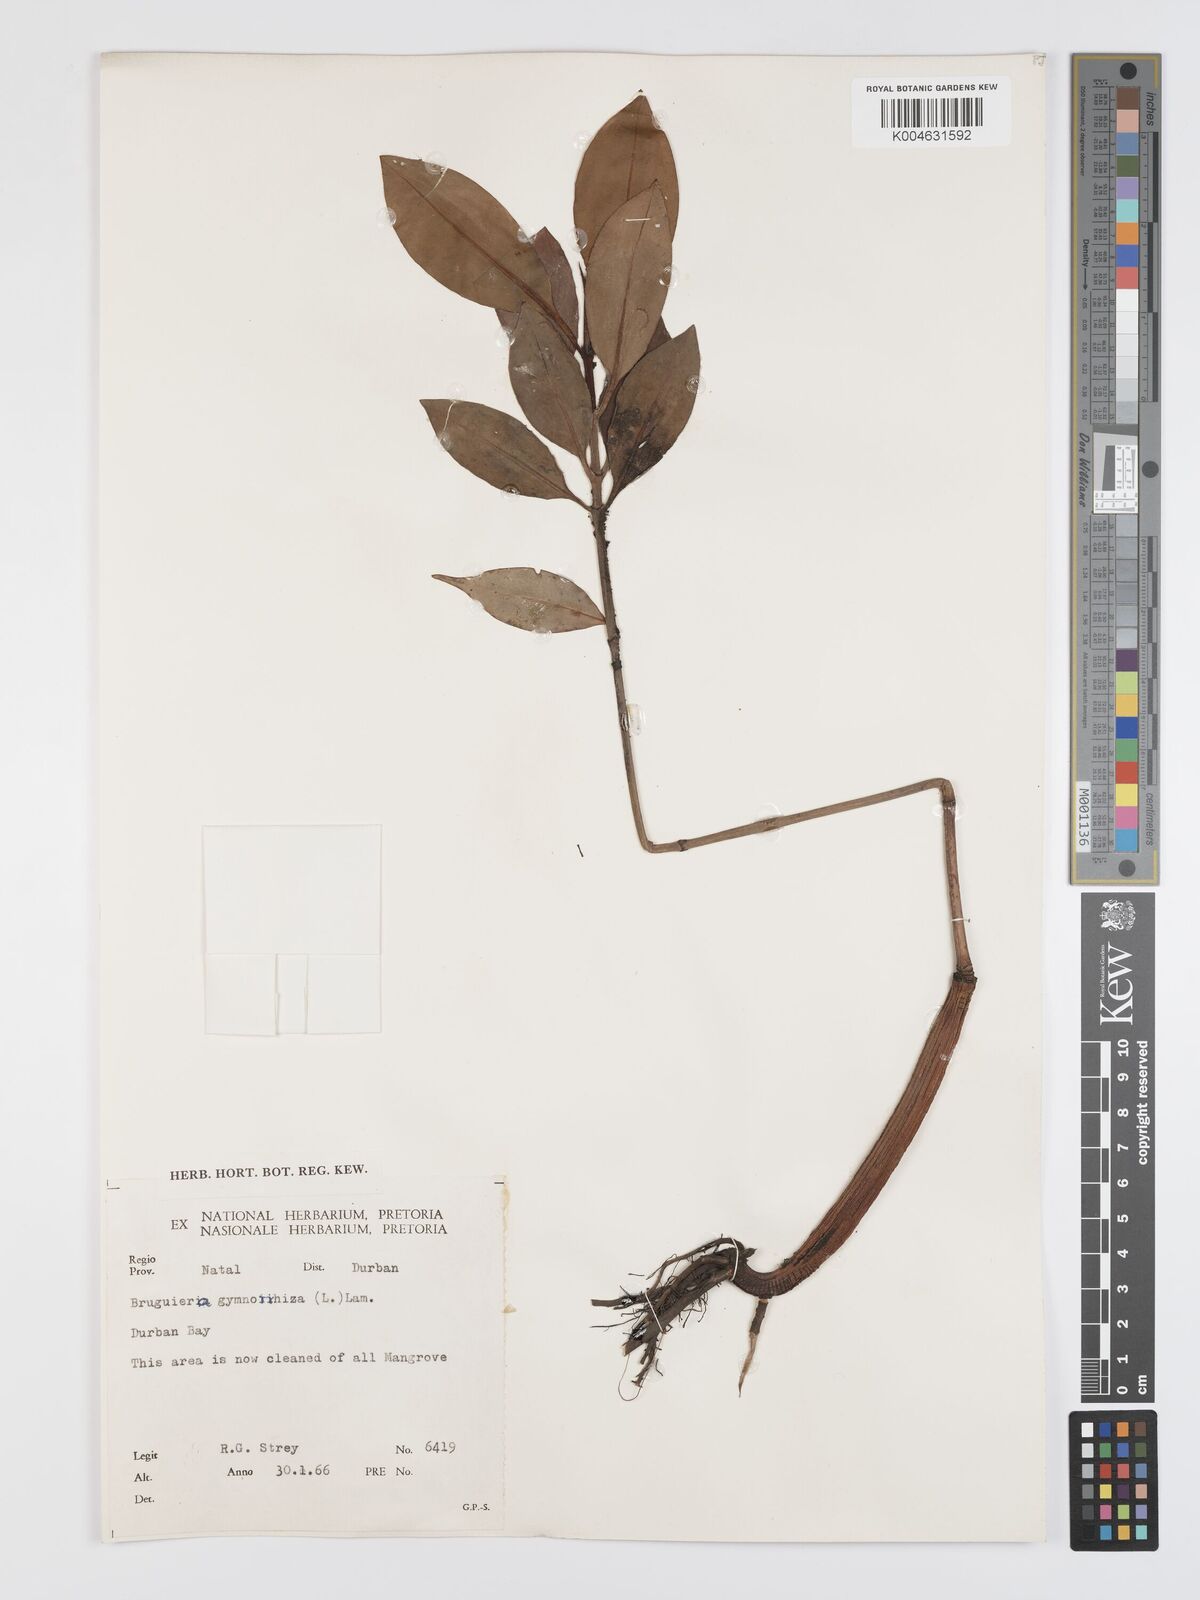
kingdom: Plantae
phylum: Tracheophyta
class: Magnoliopsida
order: Malpighiales
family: Rhizophoraceae
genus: Bruguiera
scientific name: Bruguiera gymnorhiza
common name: Oriental mangrove
